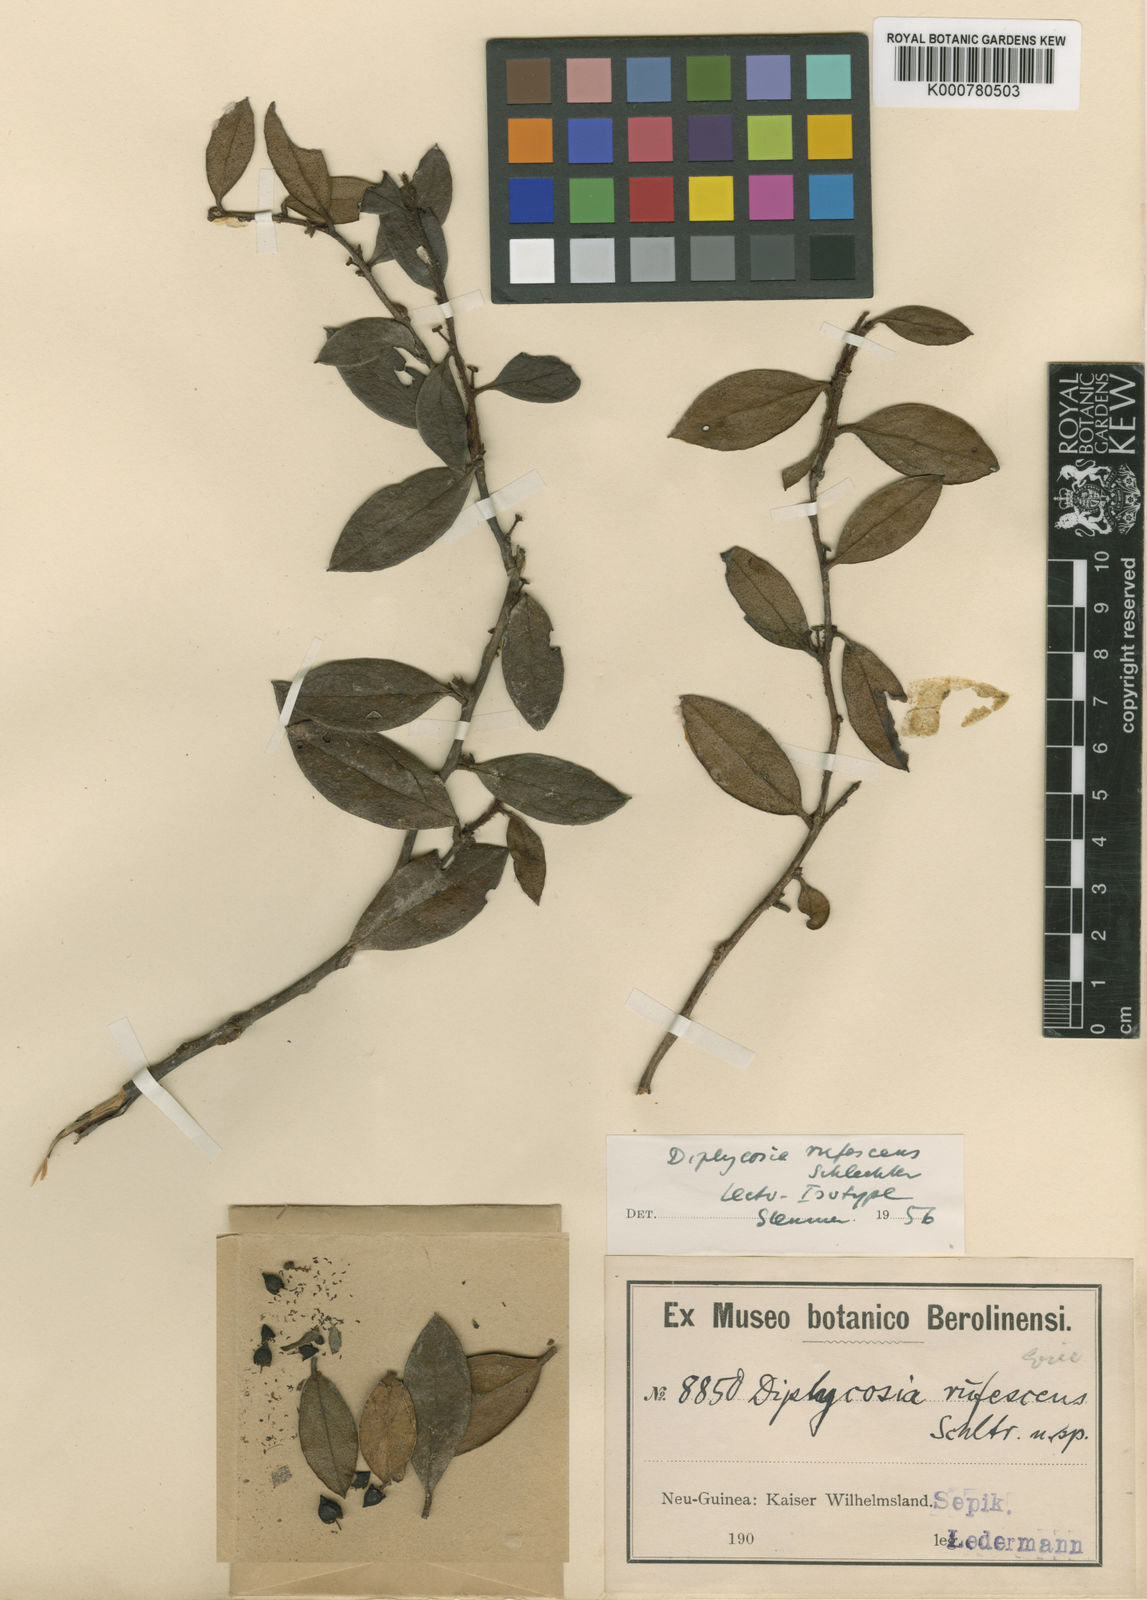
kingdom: Plantae
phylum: Tracheophyta
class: Magnoliopsida
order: Ericales
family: Ericaceae
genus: Gaultheria
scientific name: Gaultheria sepikensis
